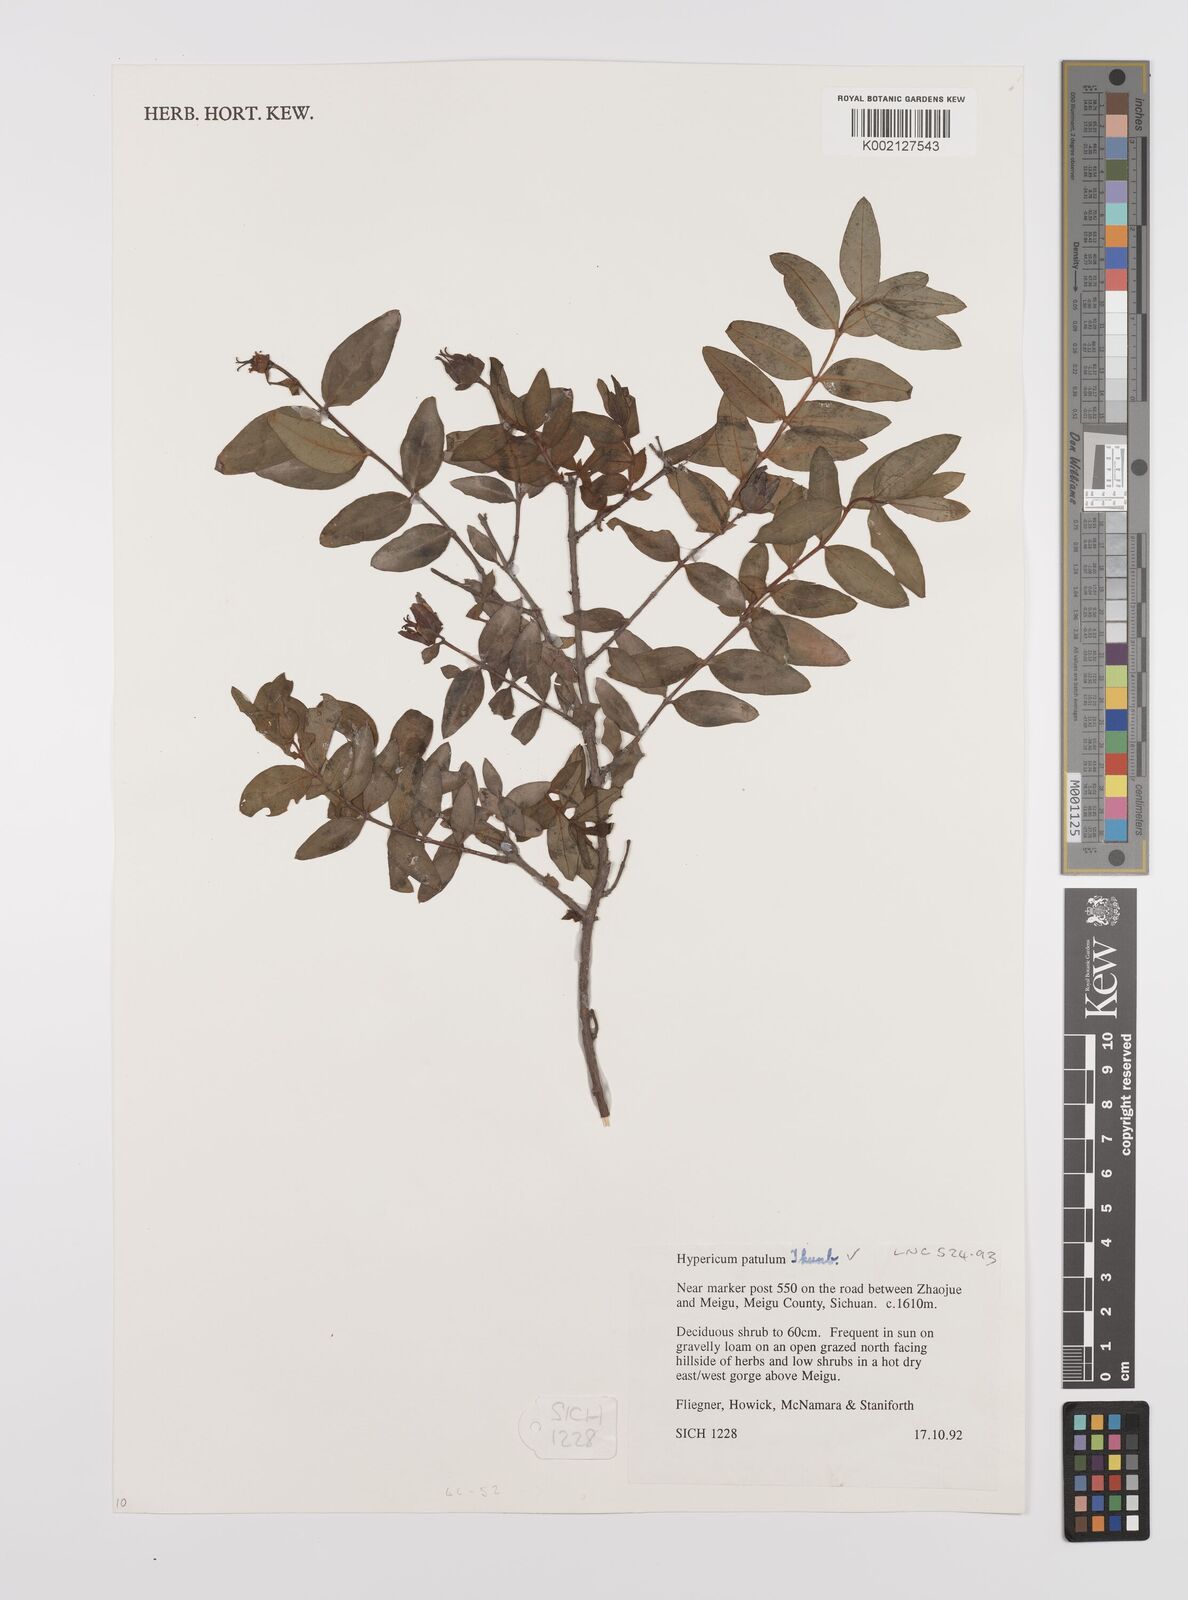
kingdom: Plantae
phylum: Tracheophyta
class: Magnoliopsida
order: Malpighiales
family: Hypericaceae
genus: Hypericum
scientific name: Hypericum patulum
